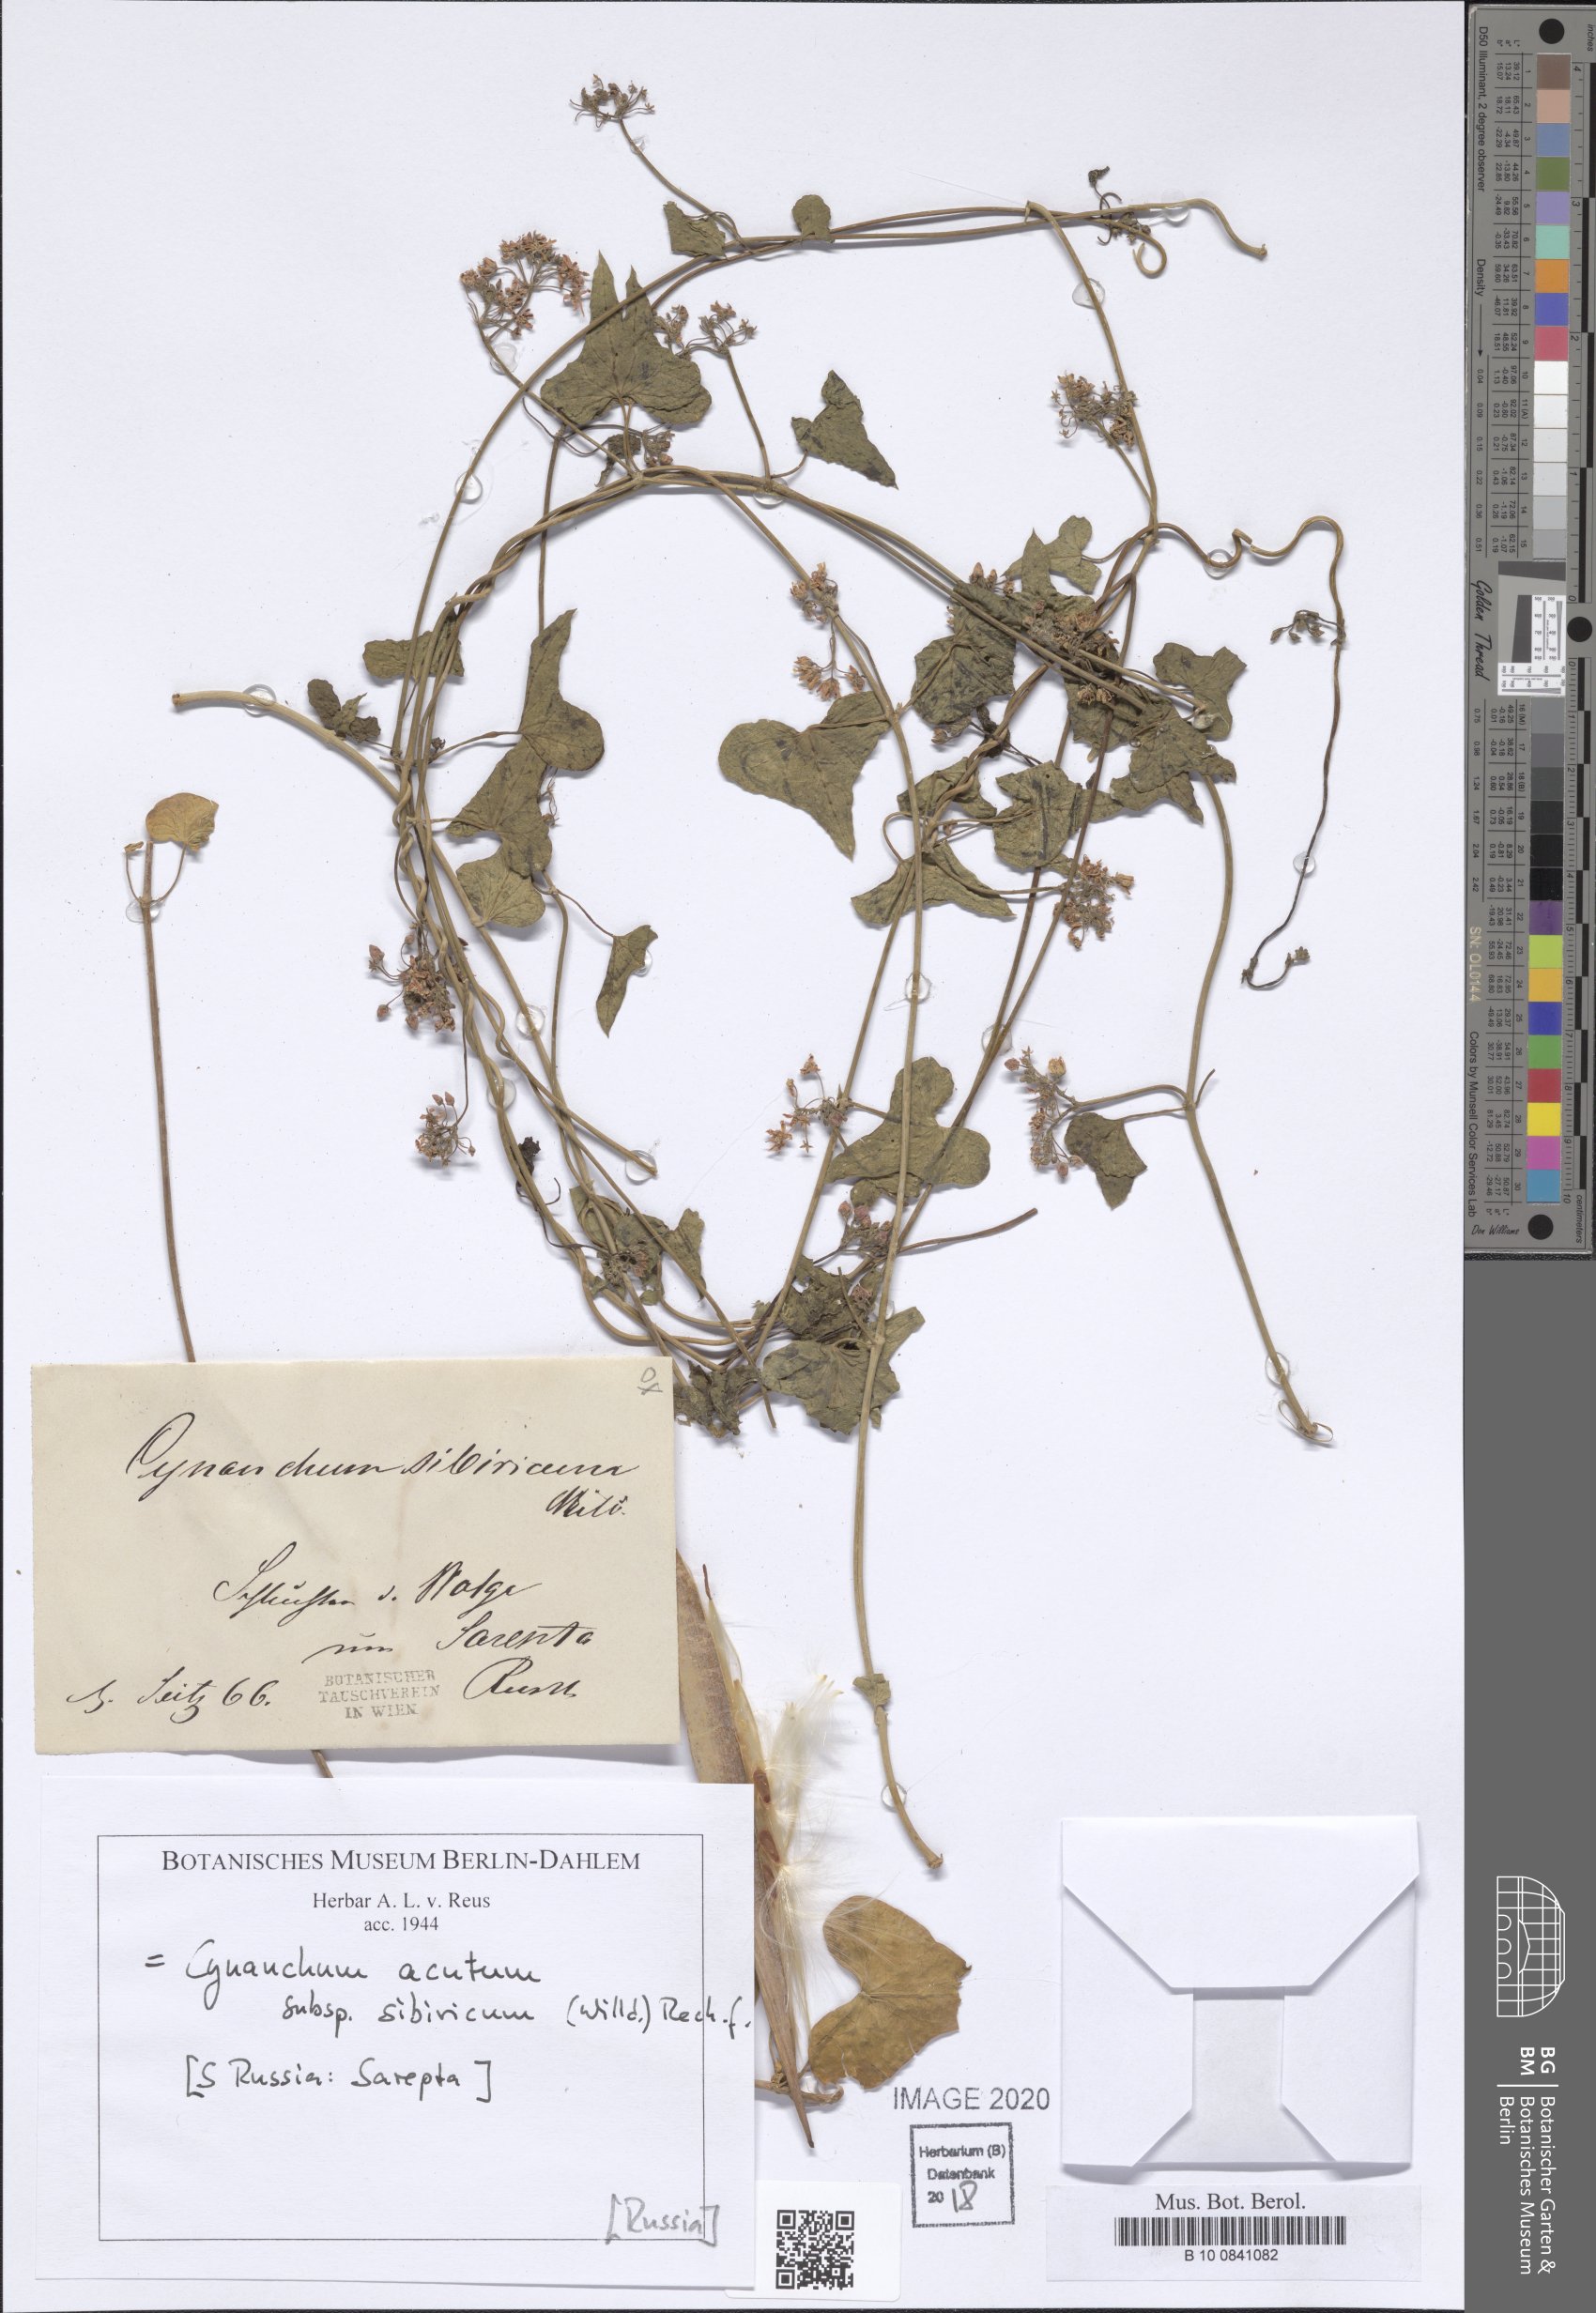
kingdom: Plantae
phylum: Tracheophyta
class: Magnoliopsida
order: Gentianales
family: Apocynaceae
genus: Cynanchum
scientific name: Cynanchum acutum
